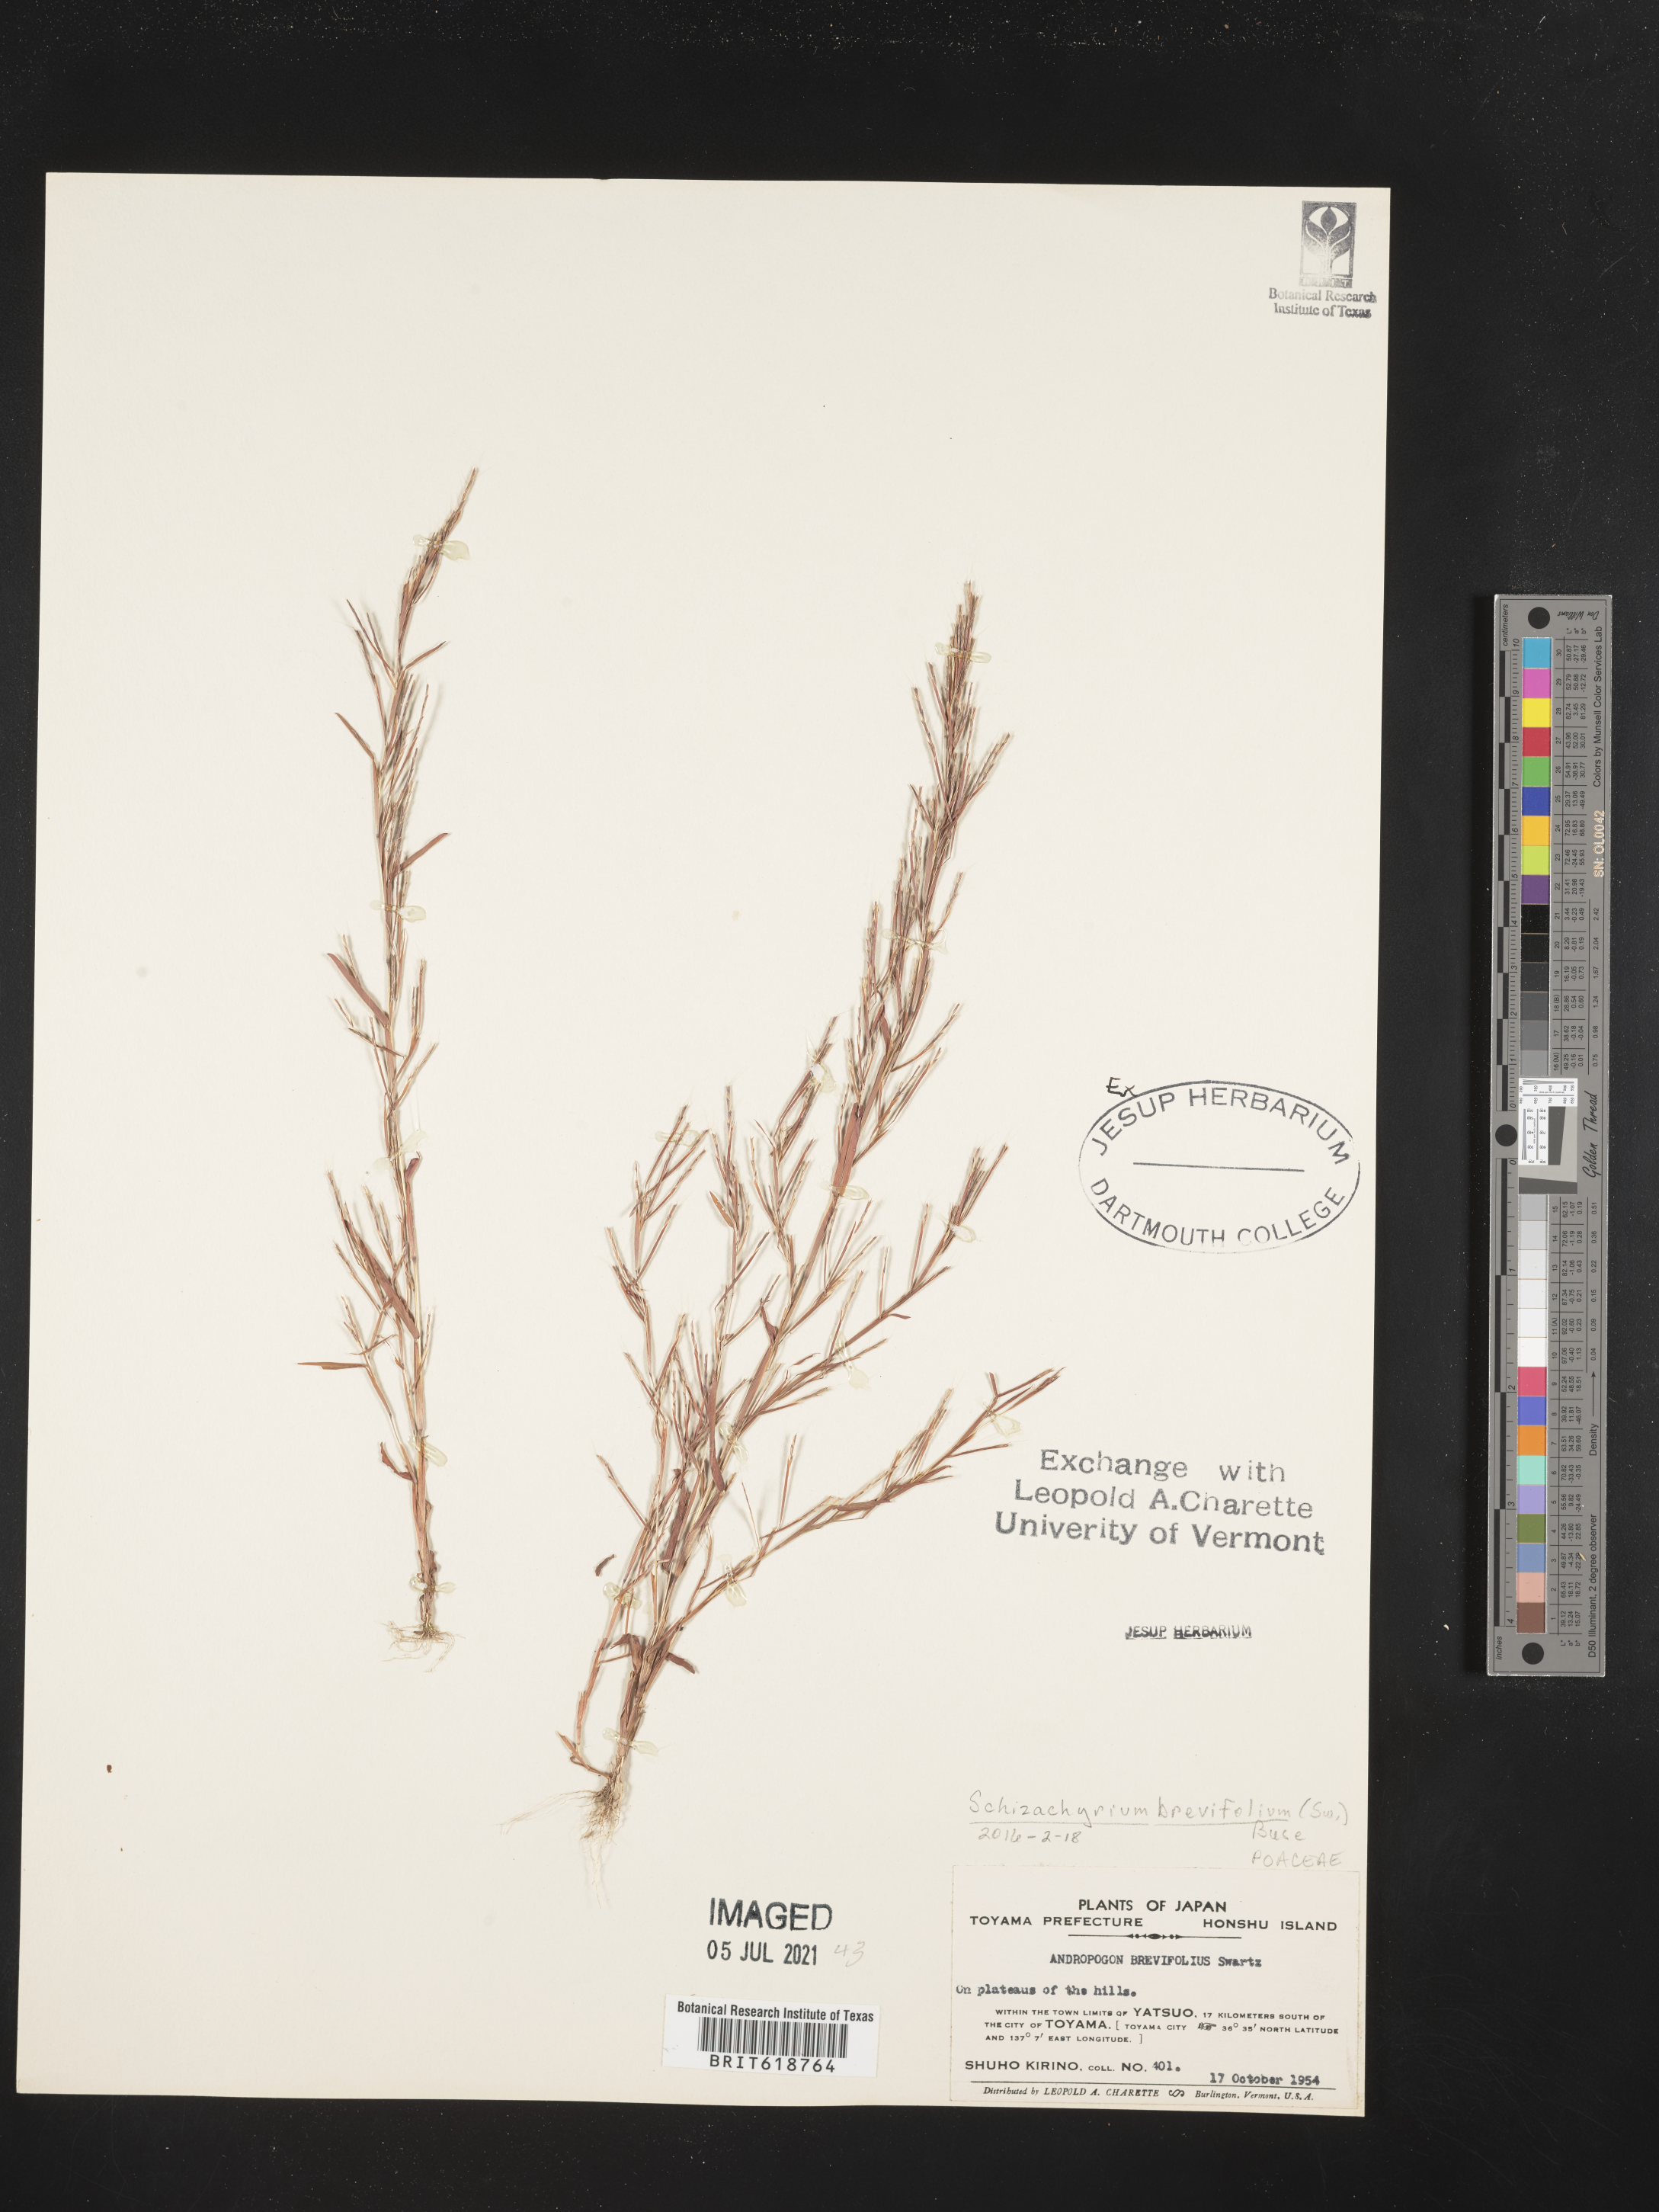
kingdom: Plantae
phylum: Tracheophyta
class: Liliopsida
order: Poales
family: Poaceae
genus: Schizachyrium
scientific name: Schizachyrium brevifolium
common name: Serillo dulce
